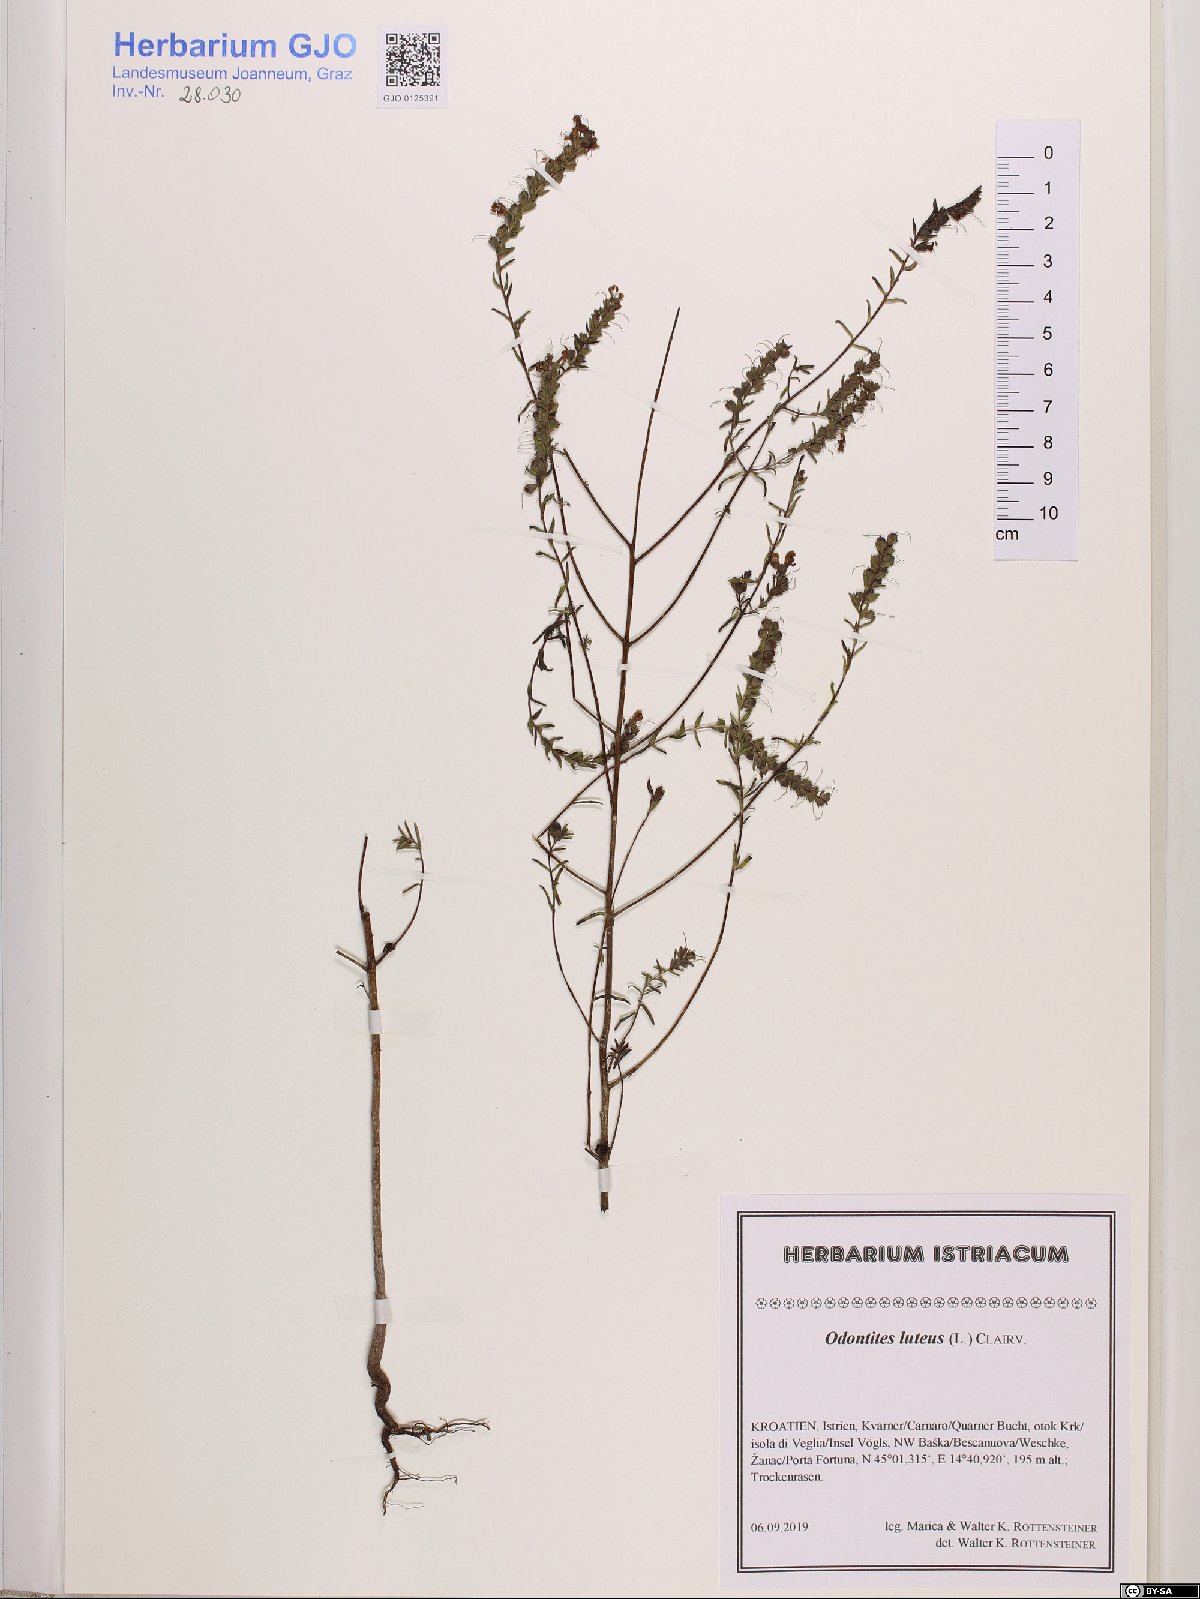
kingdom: Plantae
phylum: Tracheophyta
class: Magnoliopsida
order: Lamiales
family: Orobanchaceae
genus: Odontites
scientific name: Odontites luteus
